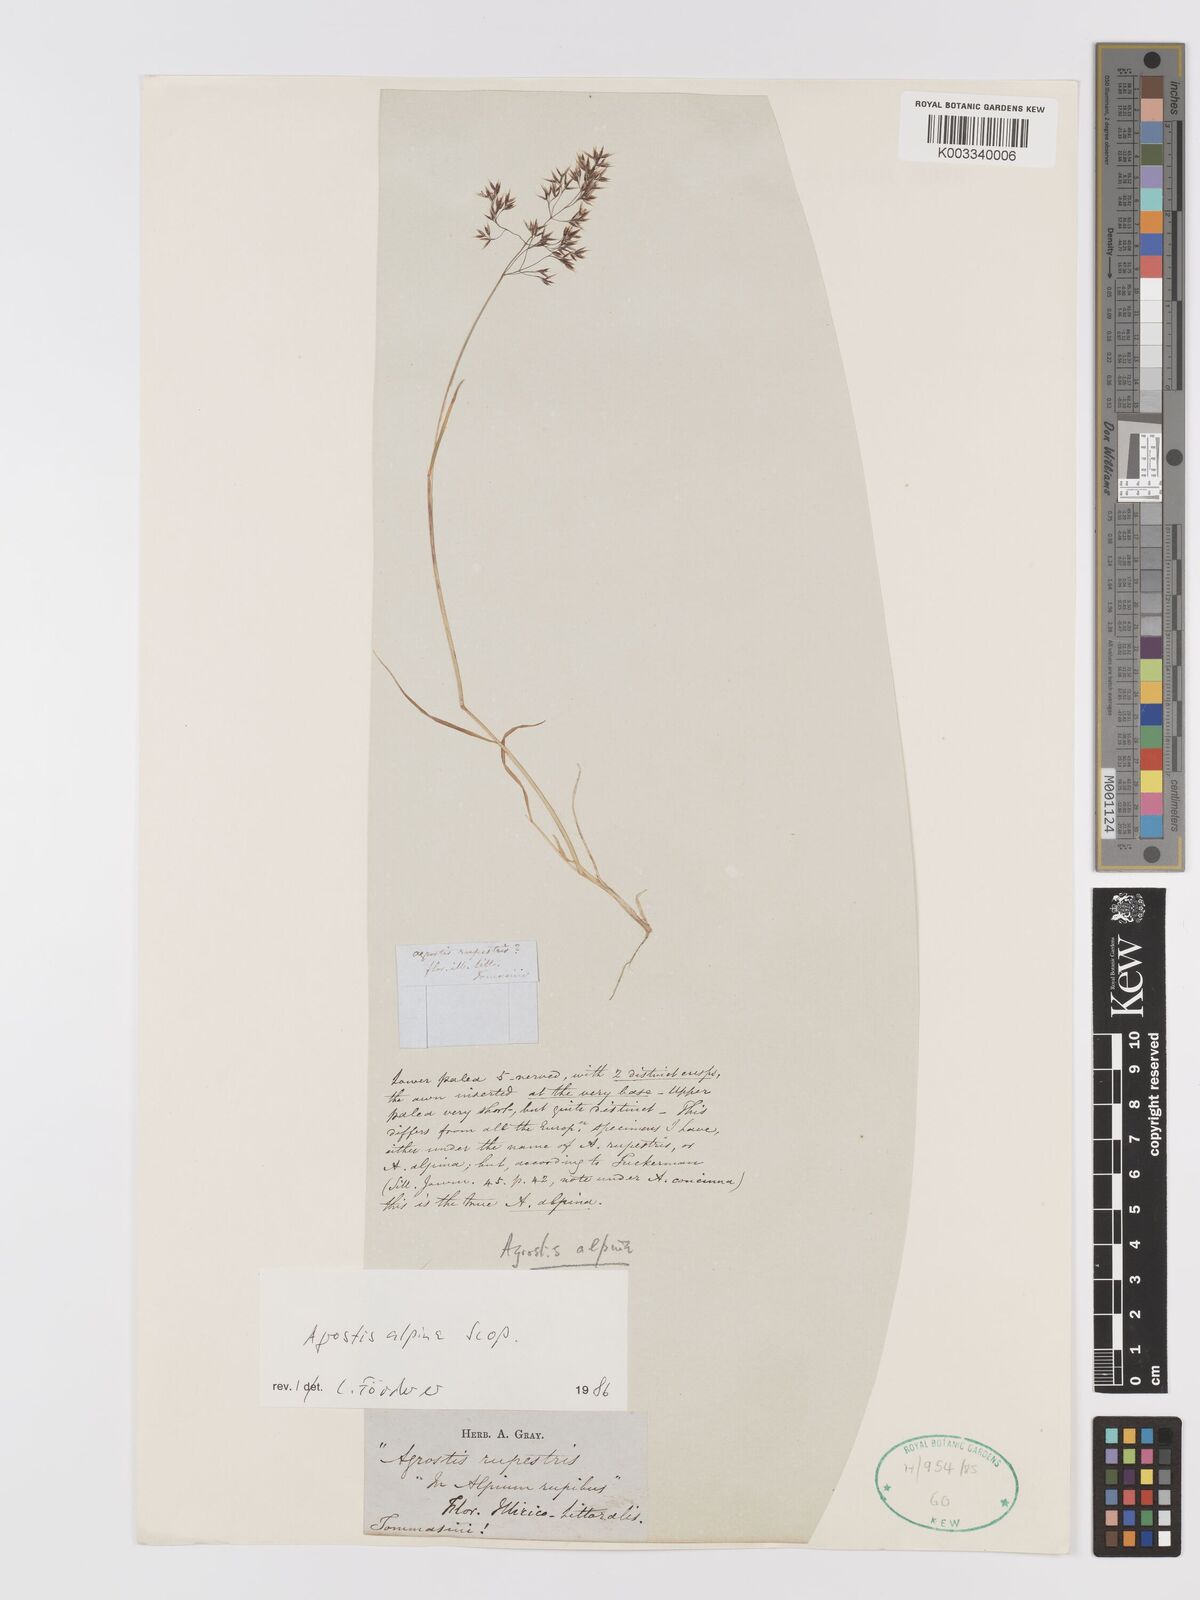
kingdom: Plantae
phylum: Tracheophyta
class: Liliopsida
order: Poales
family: Poaceae
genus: Alpagrostis
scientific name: Alpagrostis alpina
